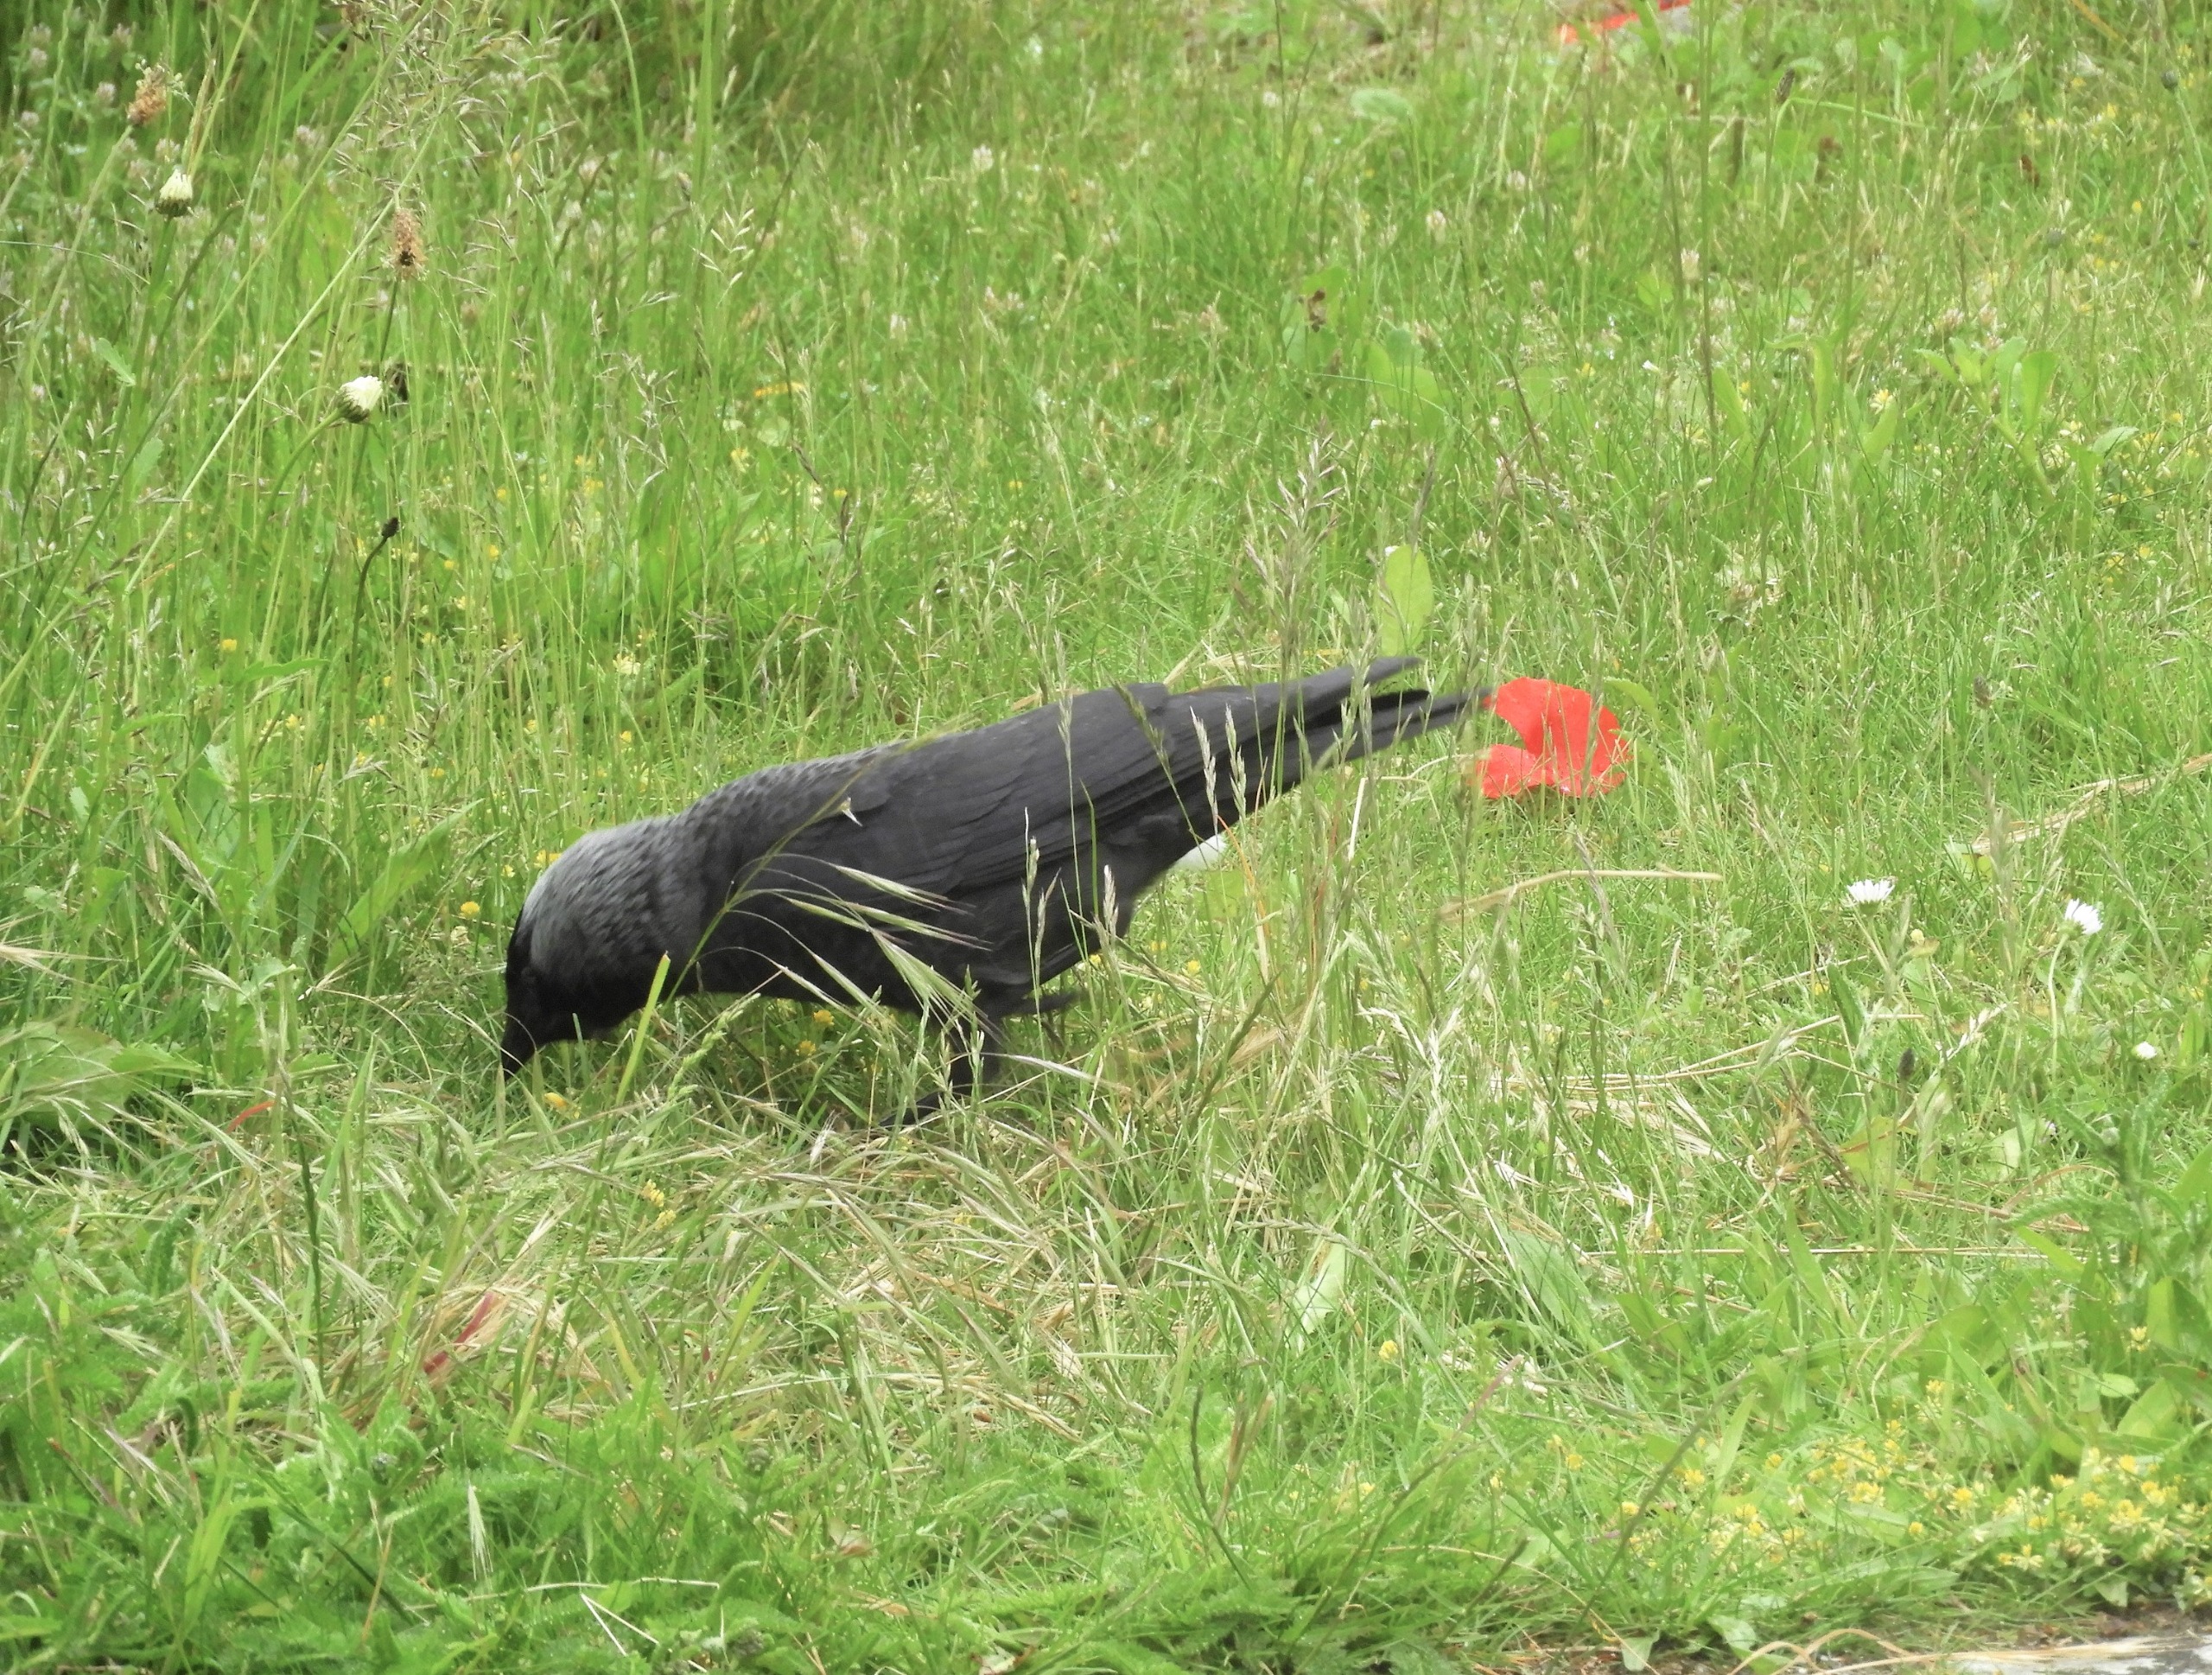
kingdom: Animalia
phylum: Chordata
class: Aves
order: Passeriformes
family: Corvidae
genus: Coloeus
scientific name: Coloeus monedula
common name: Allike
